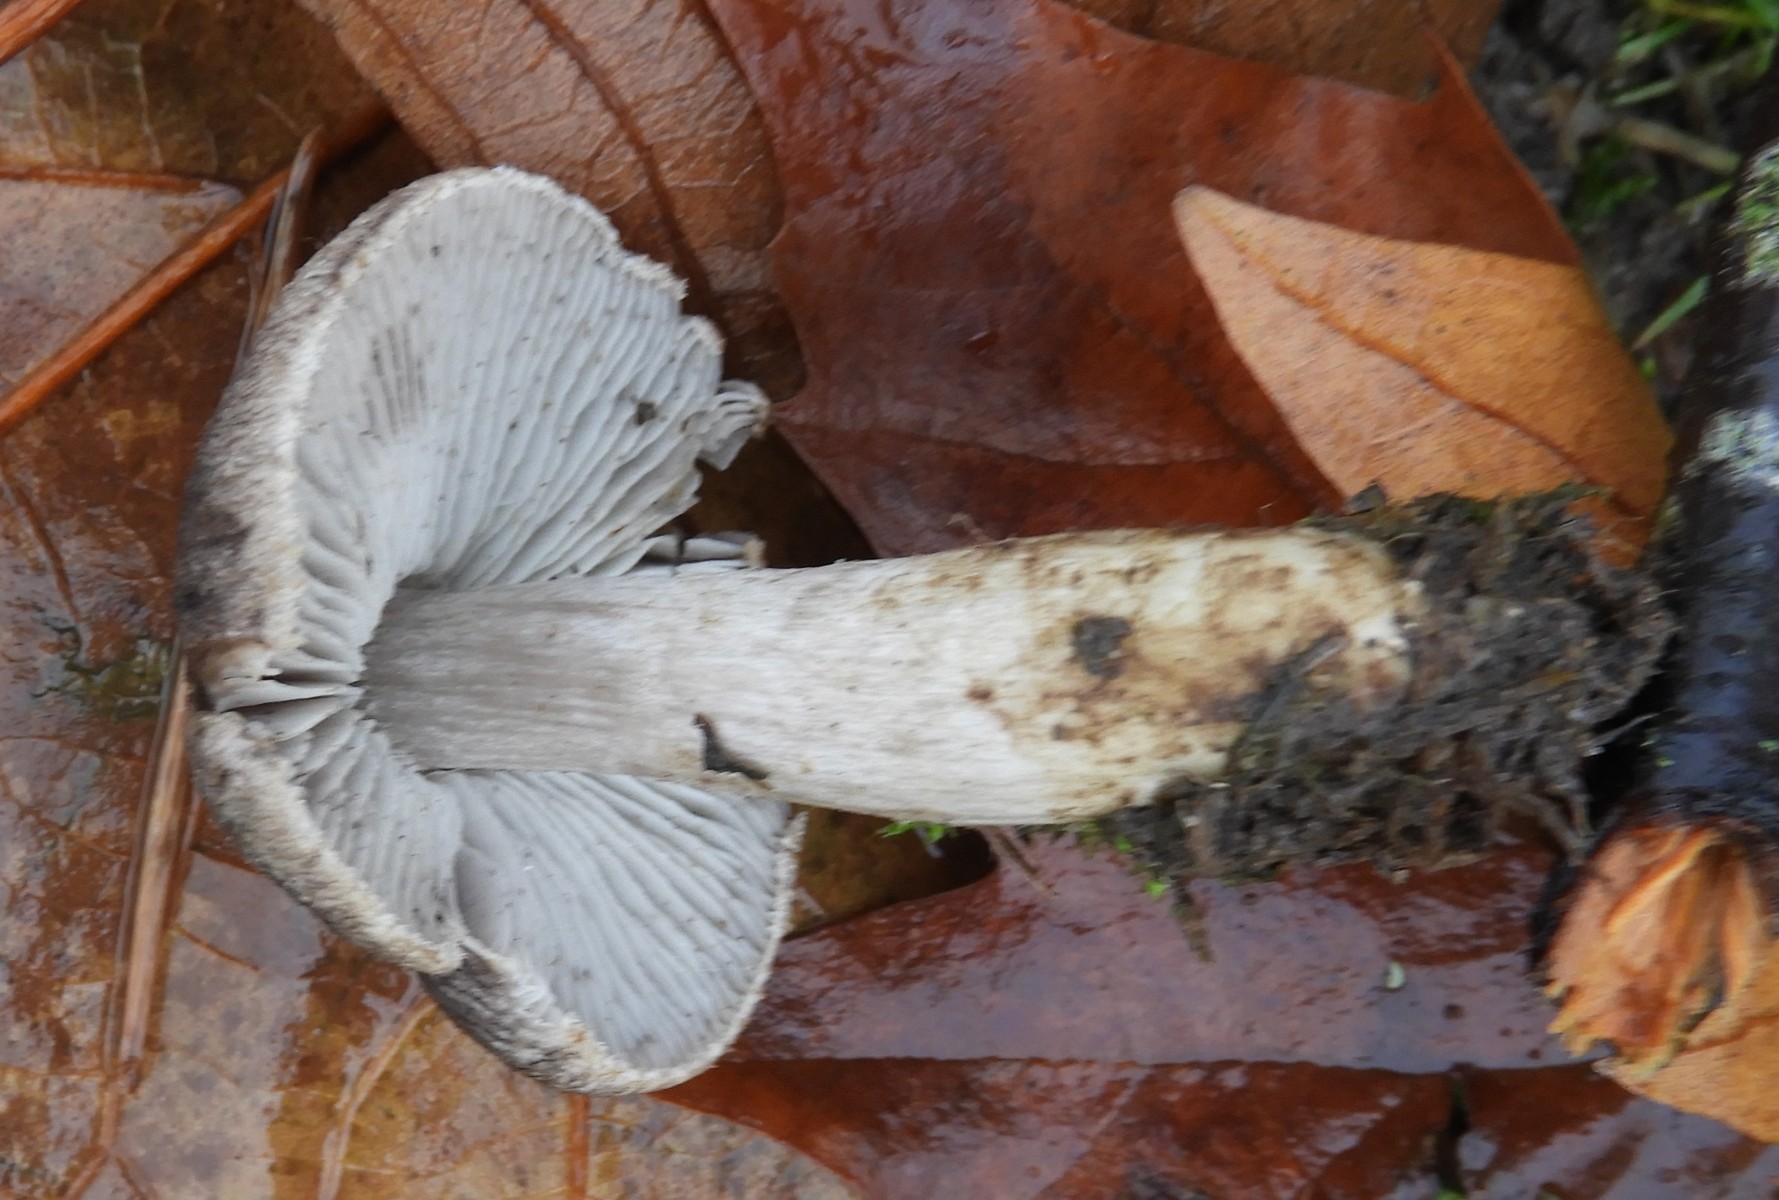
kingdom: Fungi
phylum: Basidiomycota
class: Agaricomycetes
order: Agaricales
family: Tricholomataceae
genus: Tricholoma
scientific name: Tricholoma terreum
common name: jordfarvet ridderhat
